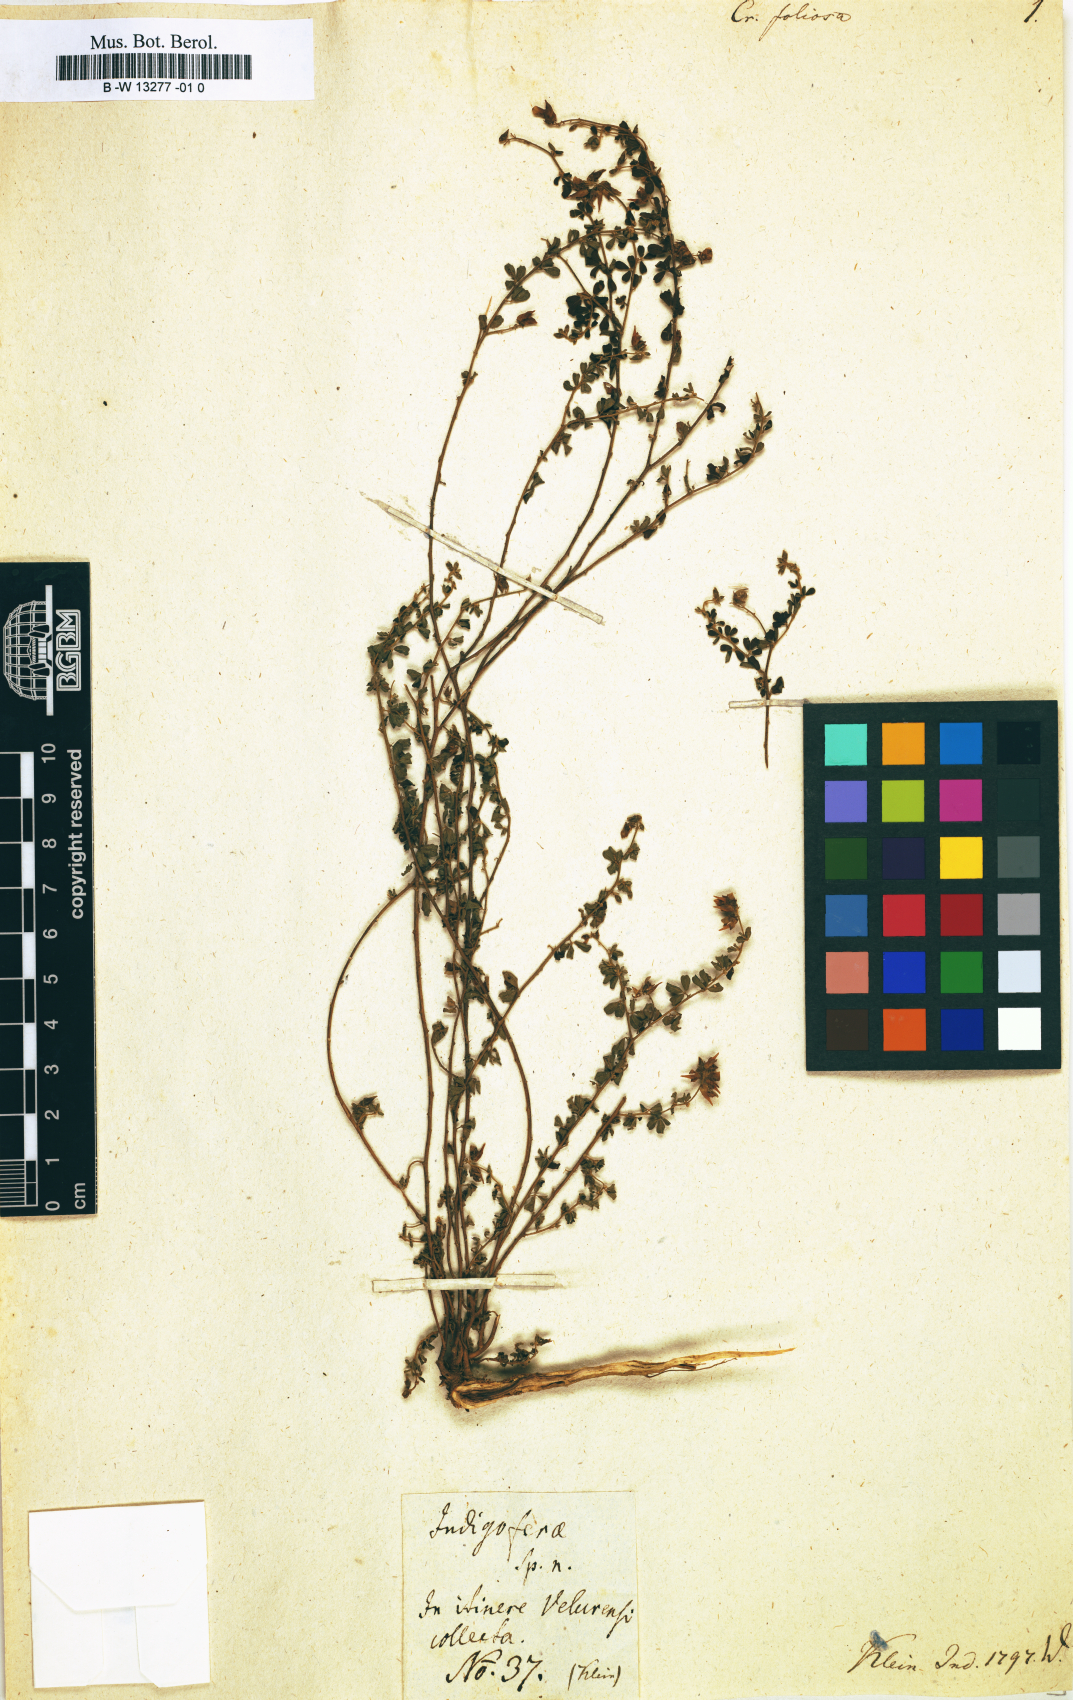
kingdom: Plantae
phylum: Tracheophyta
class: Magnoliopsida
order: Fabales
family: Fabaceae
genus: Crotalaria
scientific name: Crotalaria
